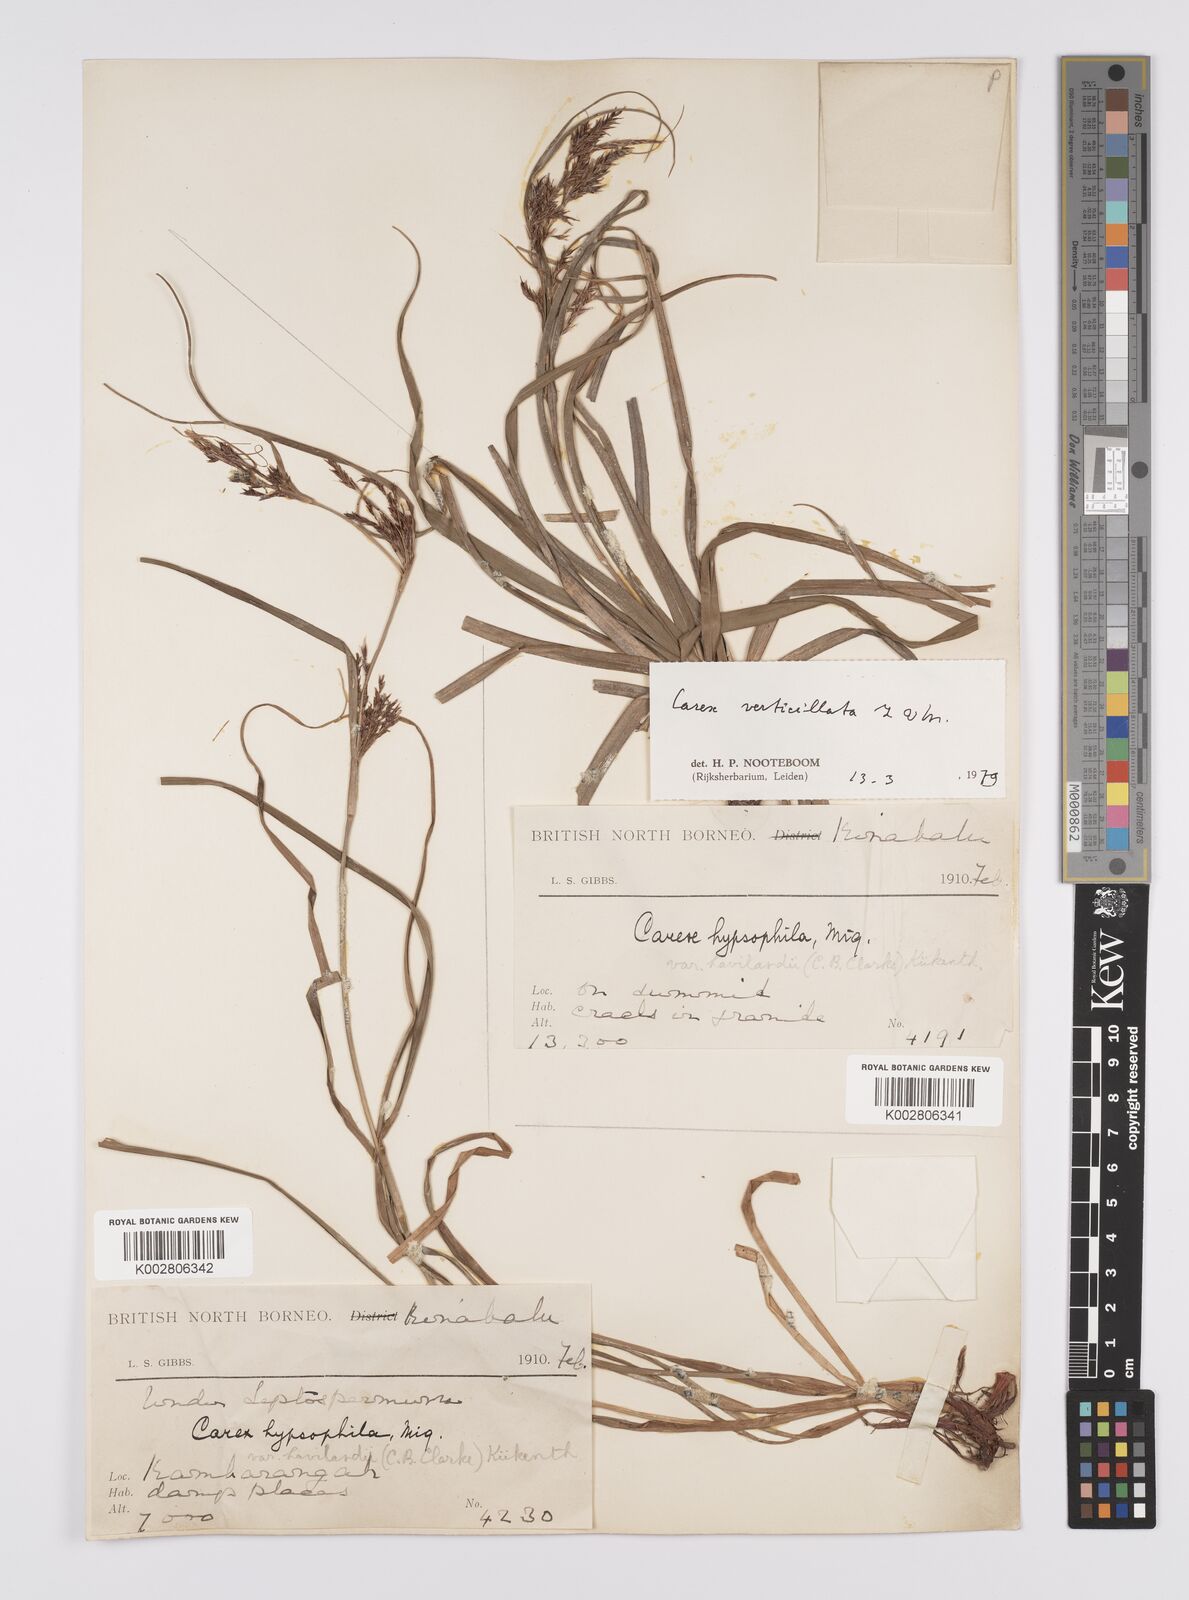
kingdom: Plantae
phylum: Tracheophyta
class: Liliopsida
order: Poales
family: Cyperaceae
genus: Carex
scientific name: Carex verticillata
